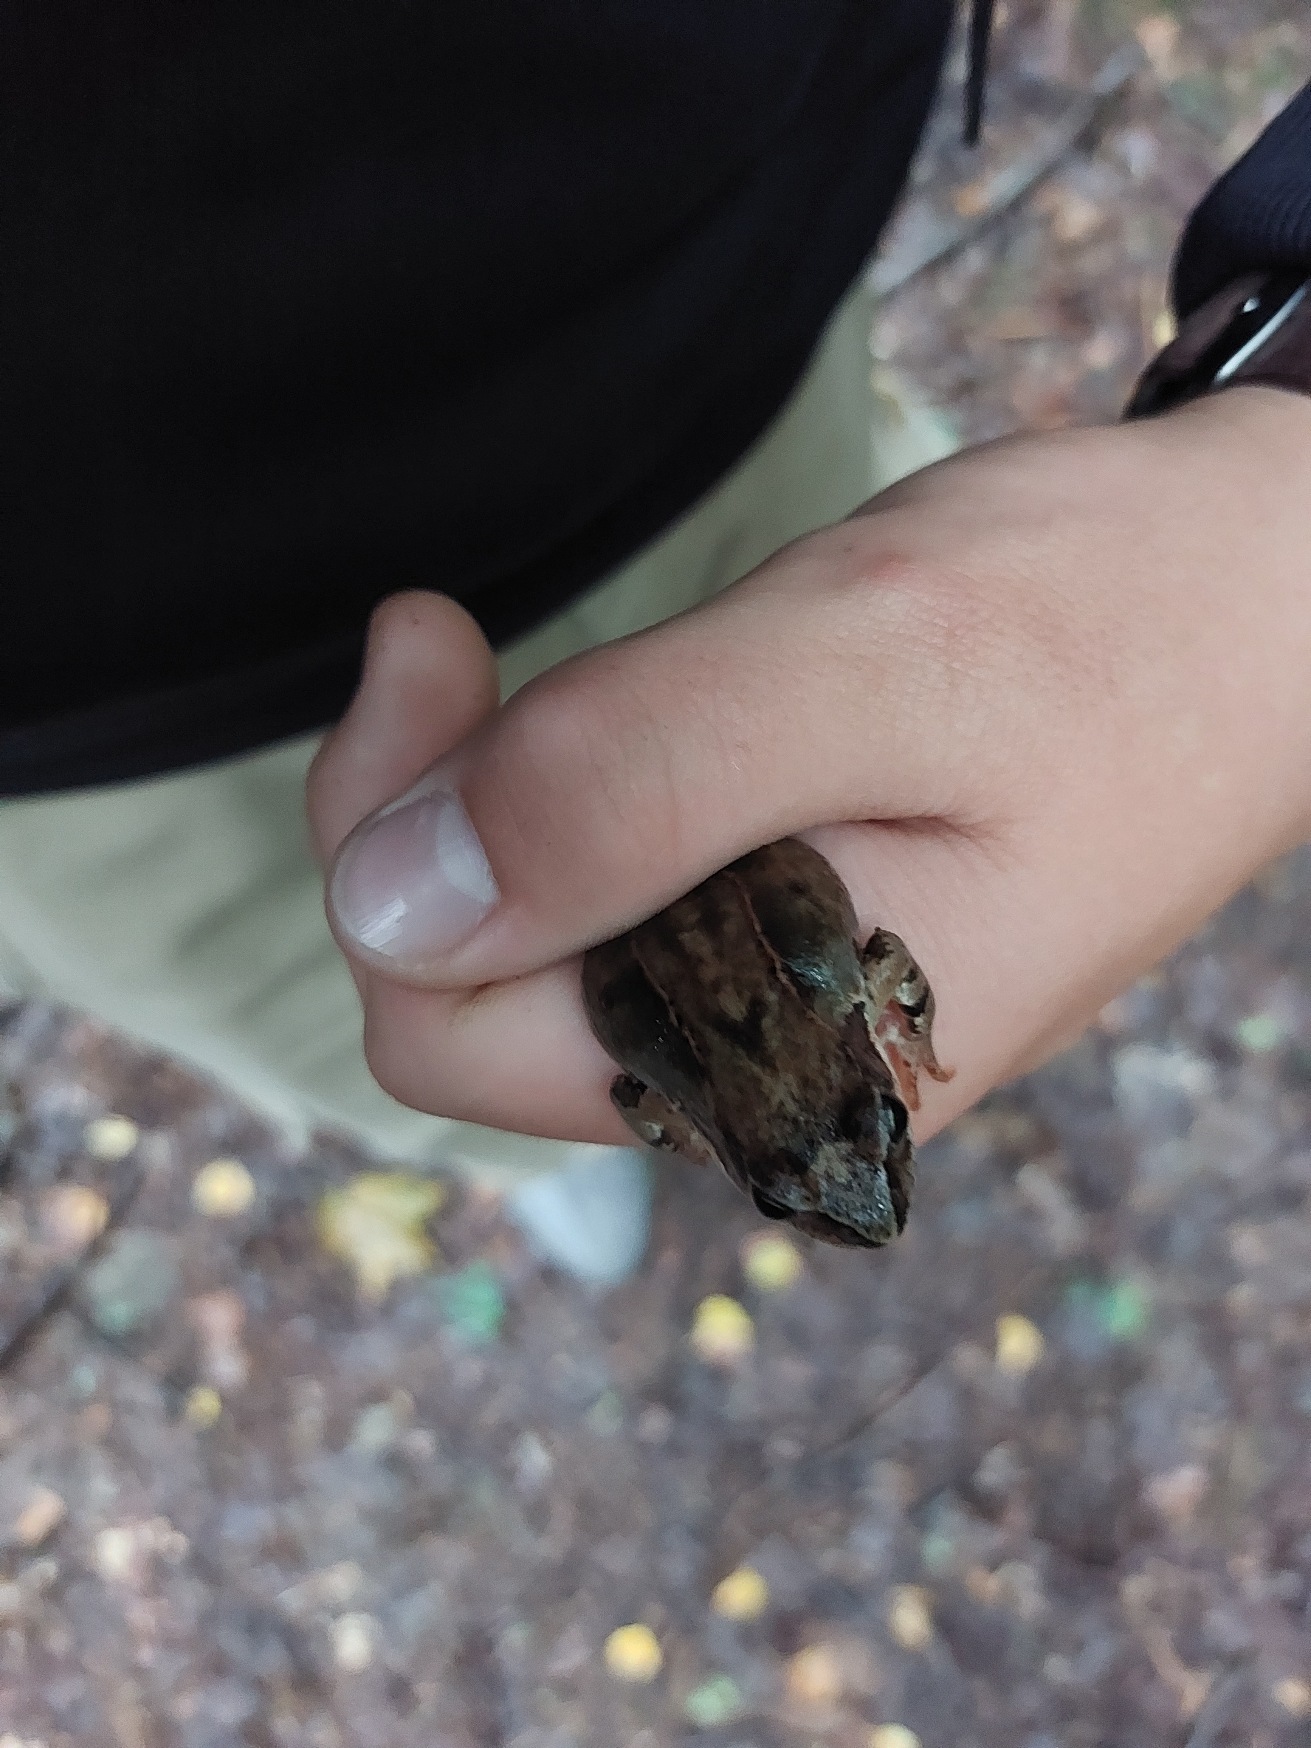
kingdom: Animalia
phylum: Chordata
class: Amphibia
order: Anura
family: Ranidae
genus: Rana
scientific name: Rana temporaria
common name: Butsnudet frø
